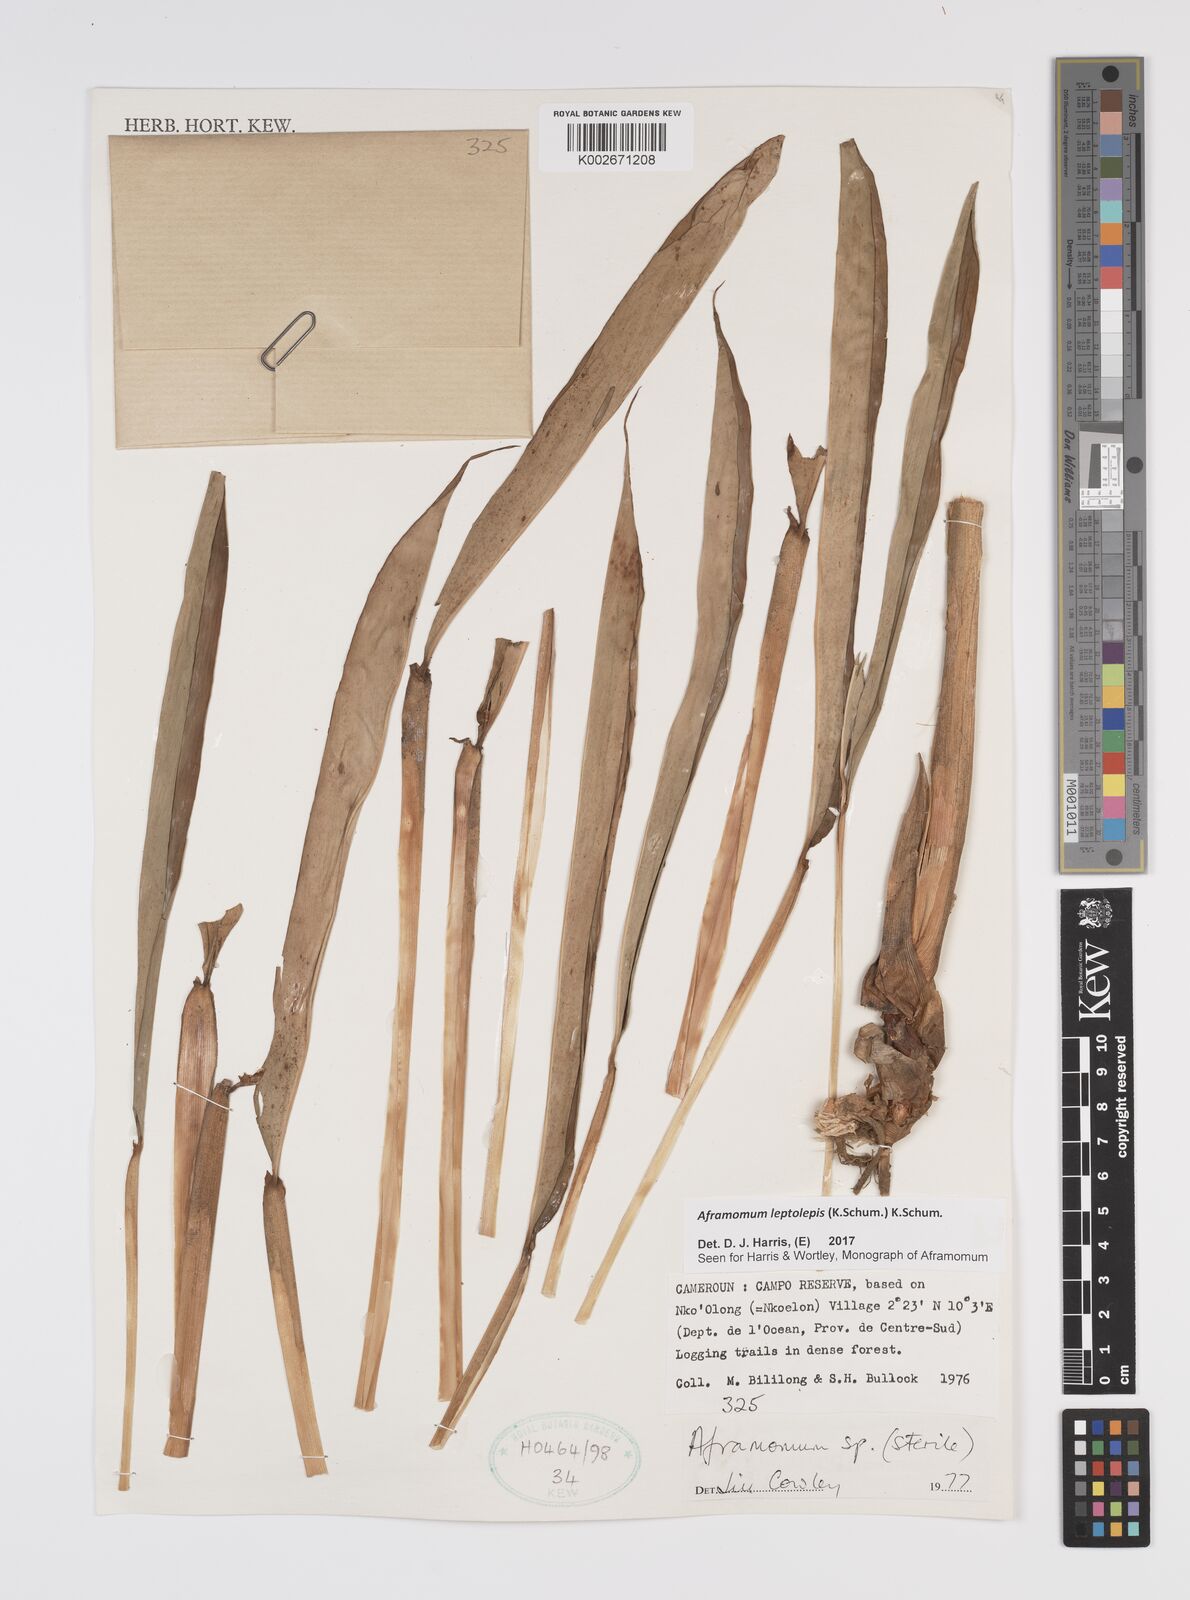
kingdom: Plantae
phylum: Tracheophyta
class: Liliopsida
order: Zingiberales
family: Zingiberaceae
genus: Aframomum
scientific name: Aframomum leptolepis
